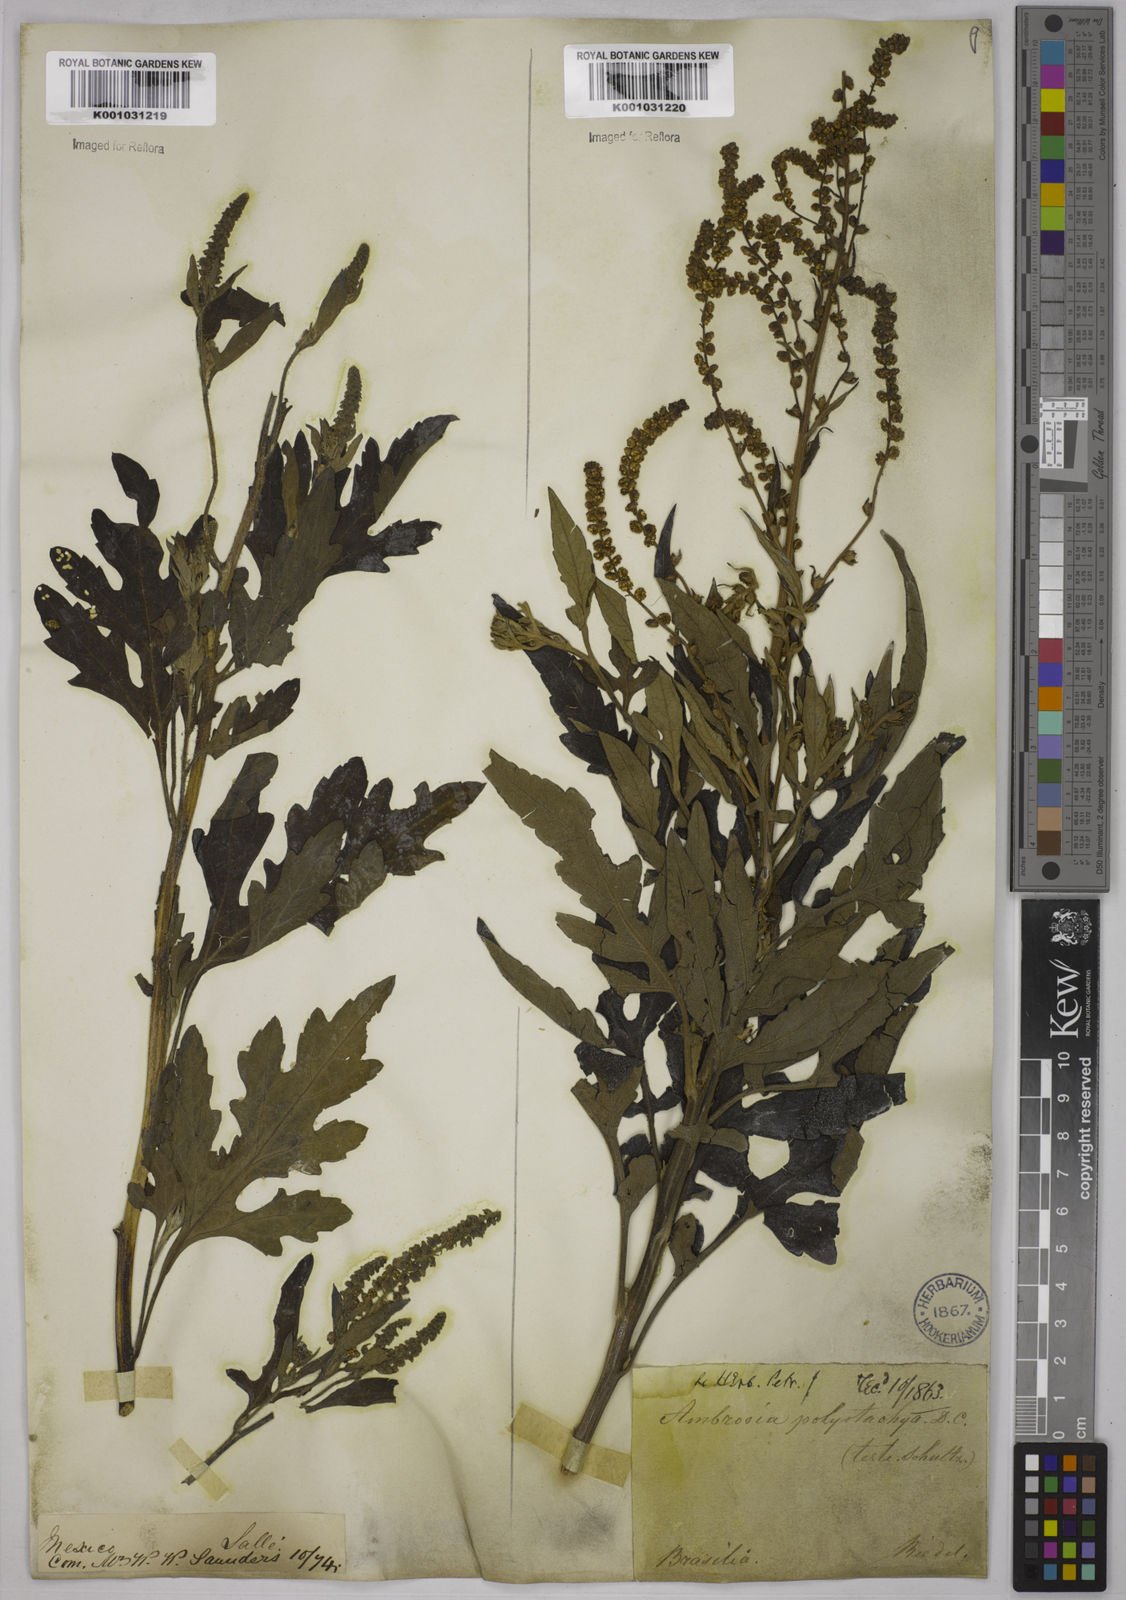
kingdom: Plantae
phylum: Tracheophyta
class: Magnoliopsida
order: Asterales
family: Asteraceae
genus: Ambrosia
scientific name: Ambrosia polystachya
